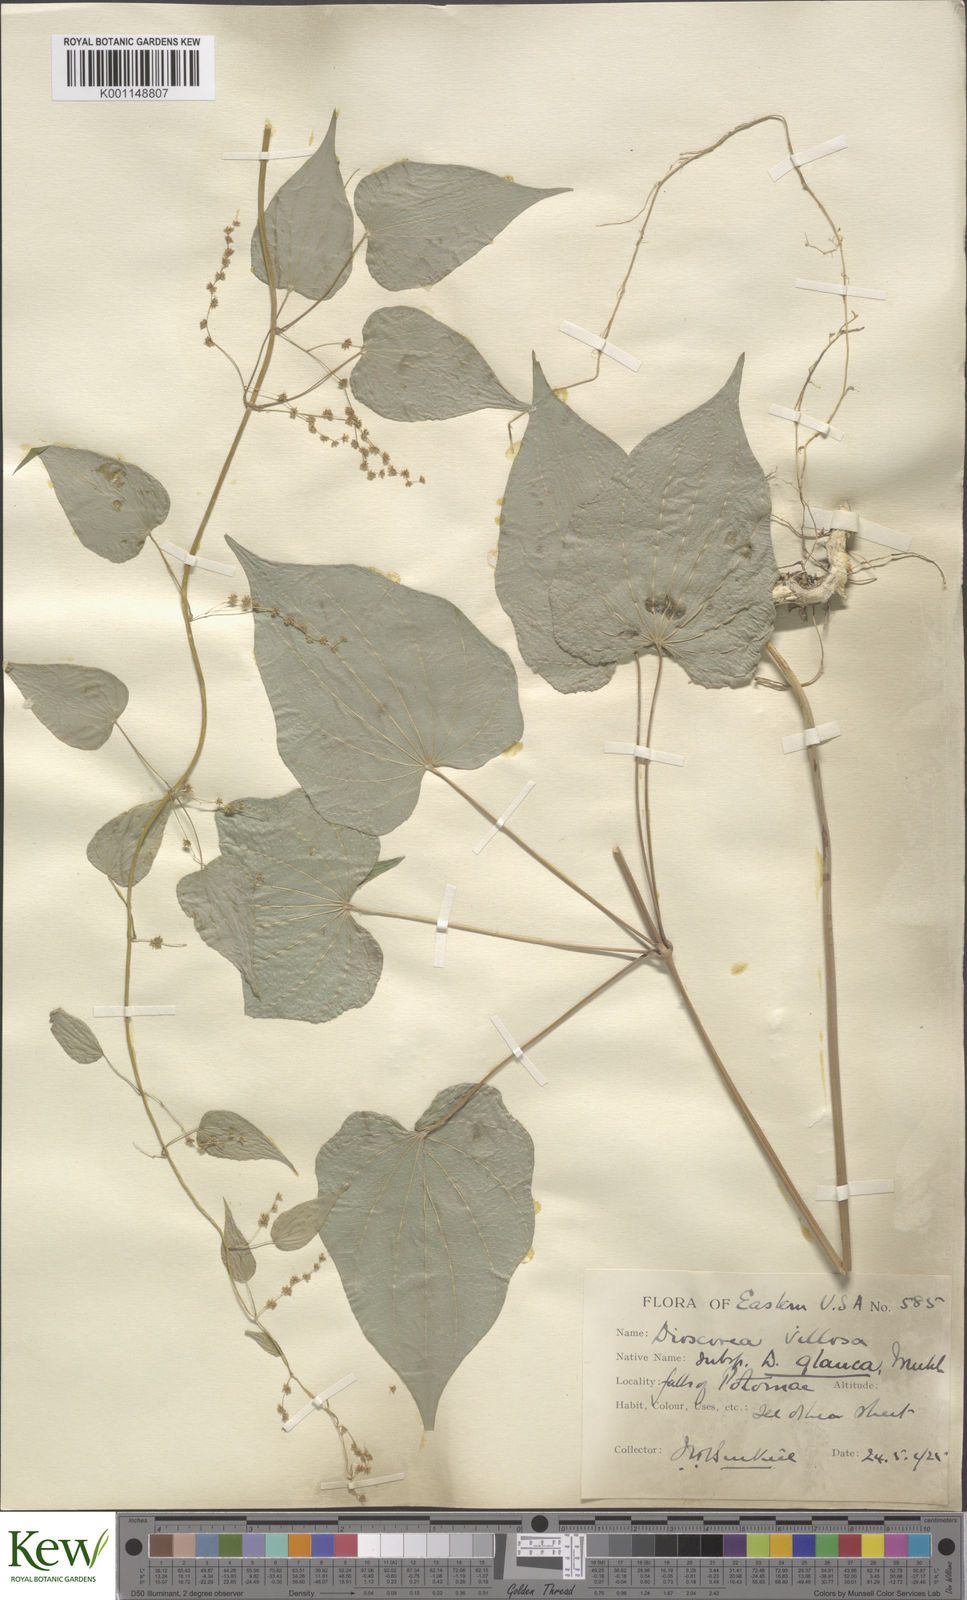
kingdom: Plantae
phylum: Tracheophyta
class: Liliopsida
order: Dioscoreales
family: Dioscoreaceae
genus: Dioscorea
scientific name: Dioscorea villosa
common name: Wild yam
